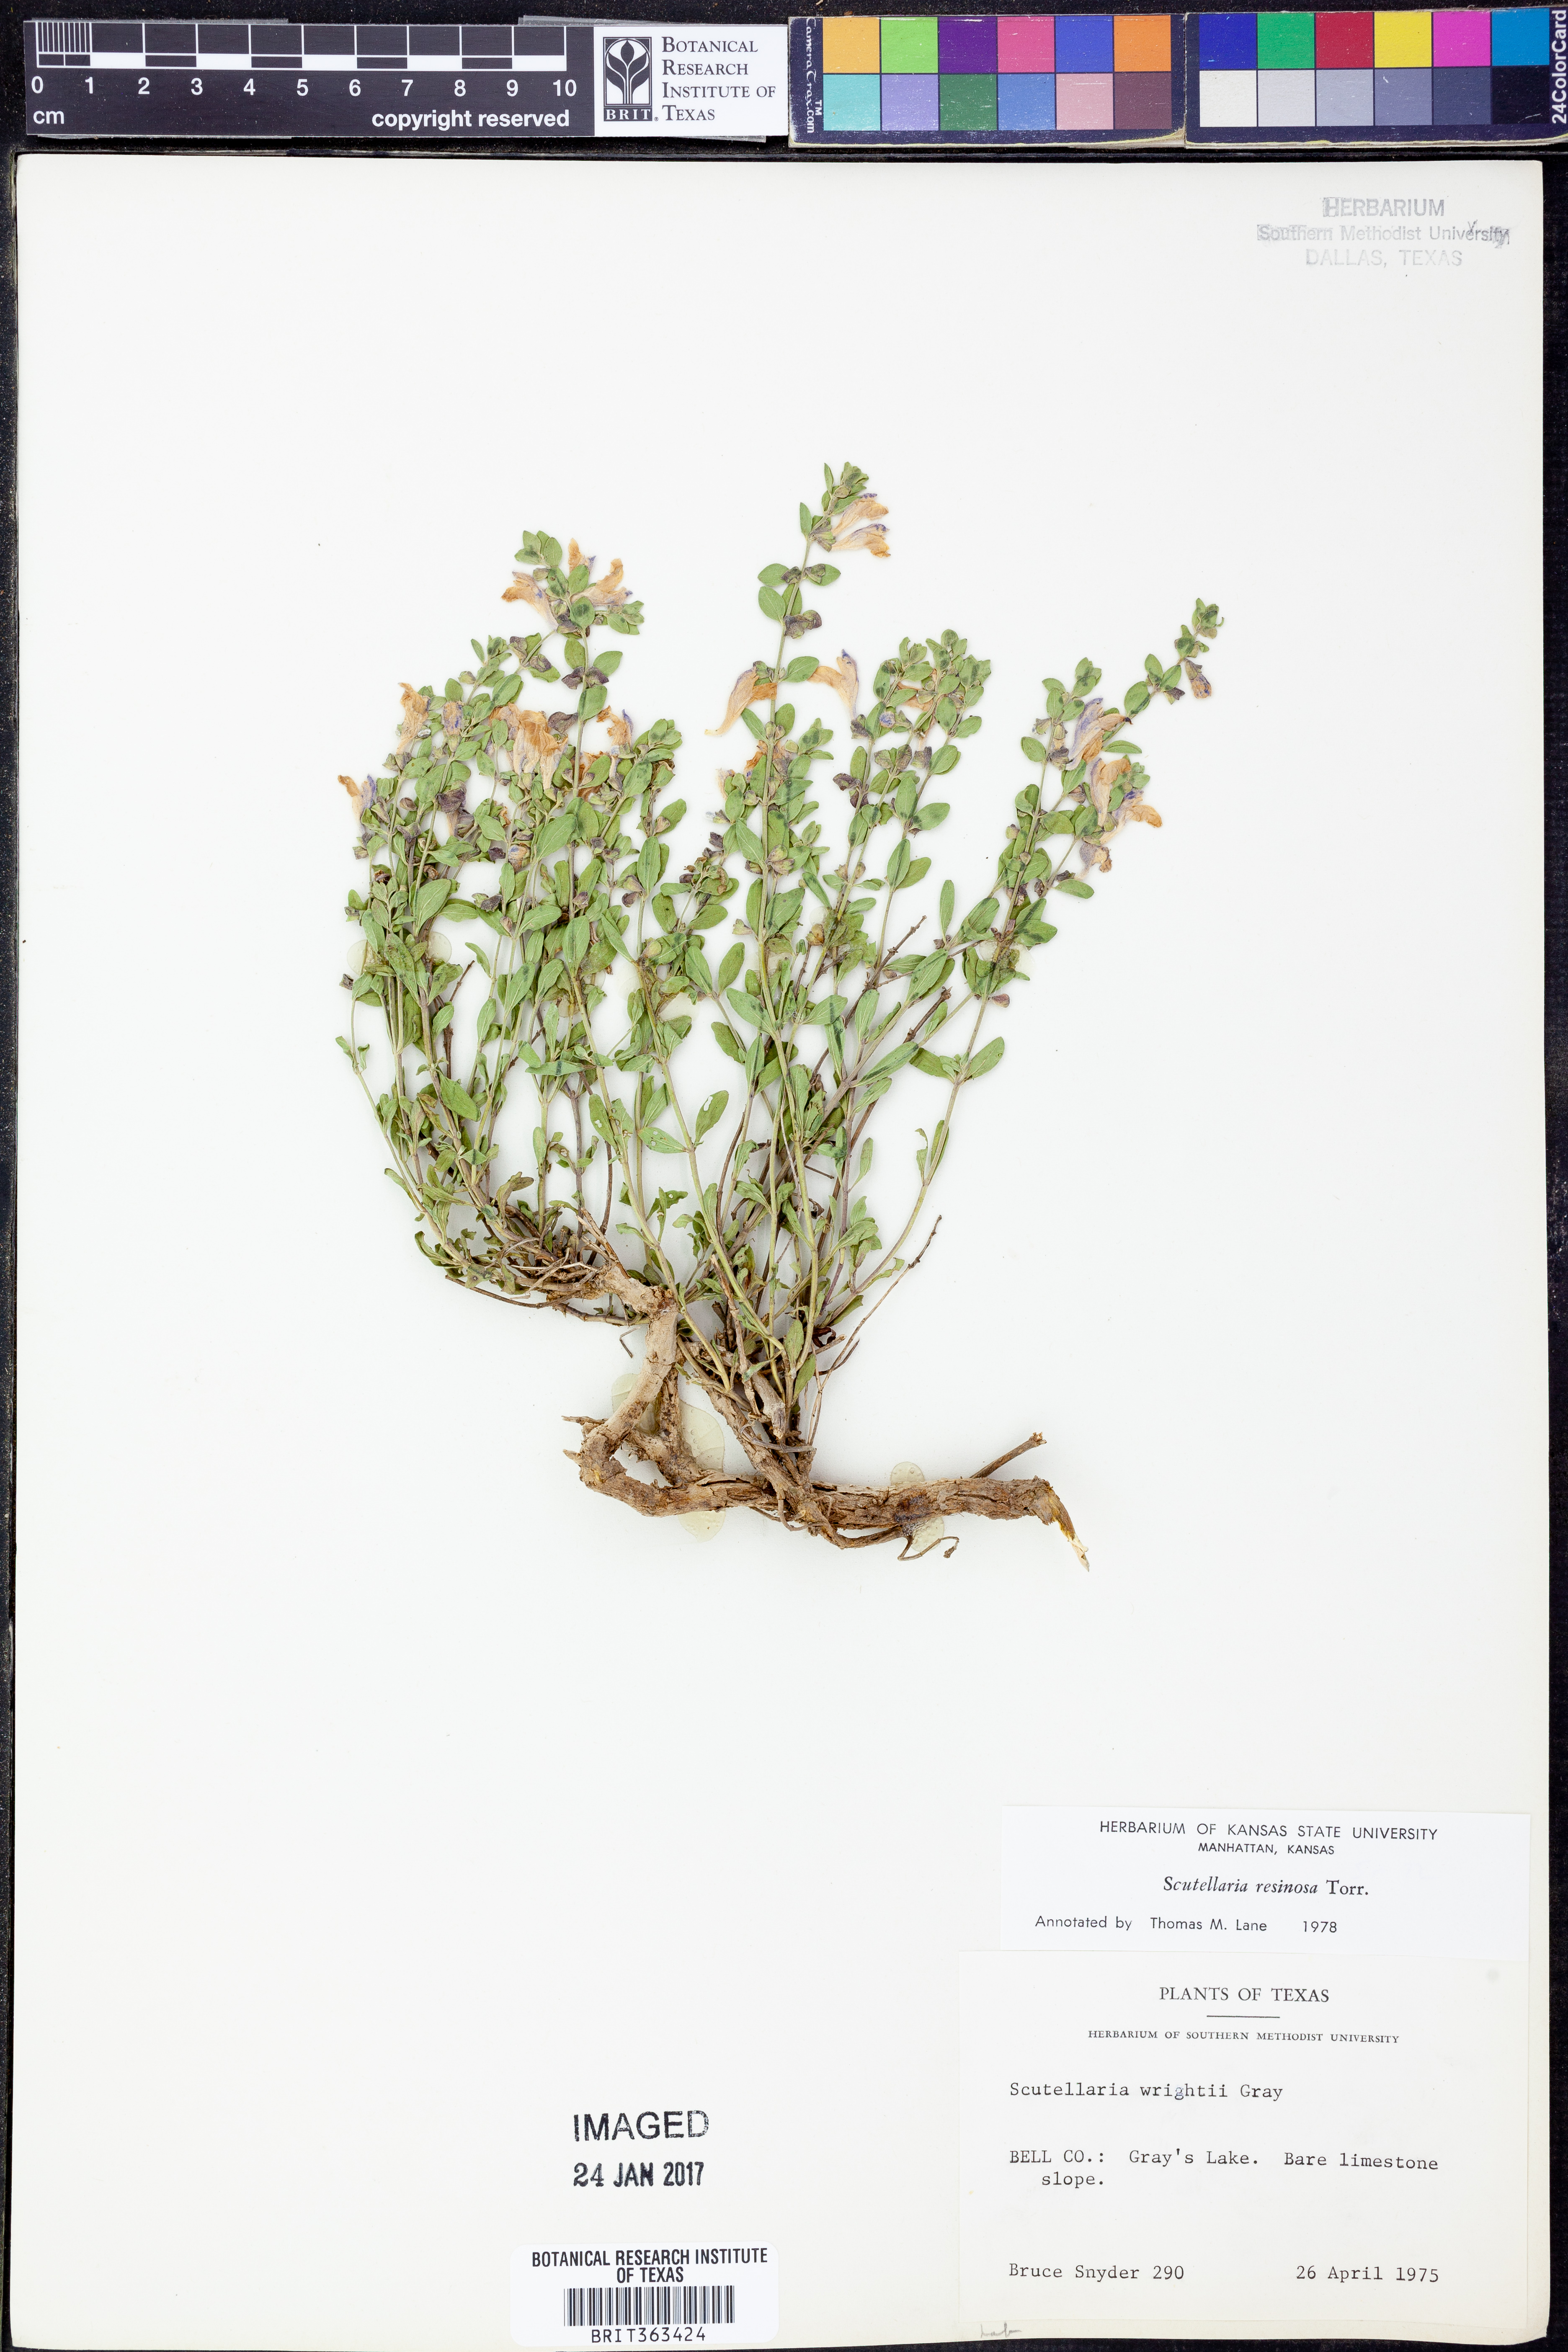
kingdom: Plantae
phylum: Tracheophyta
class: Magnoliopsida
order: Lamiales
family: Lamiaceae
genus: Scutellaria
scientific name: Scutellaria resinosa
